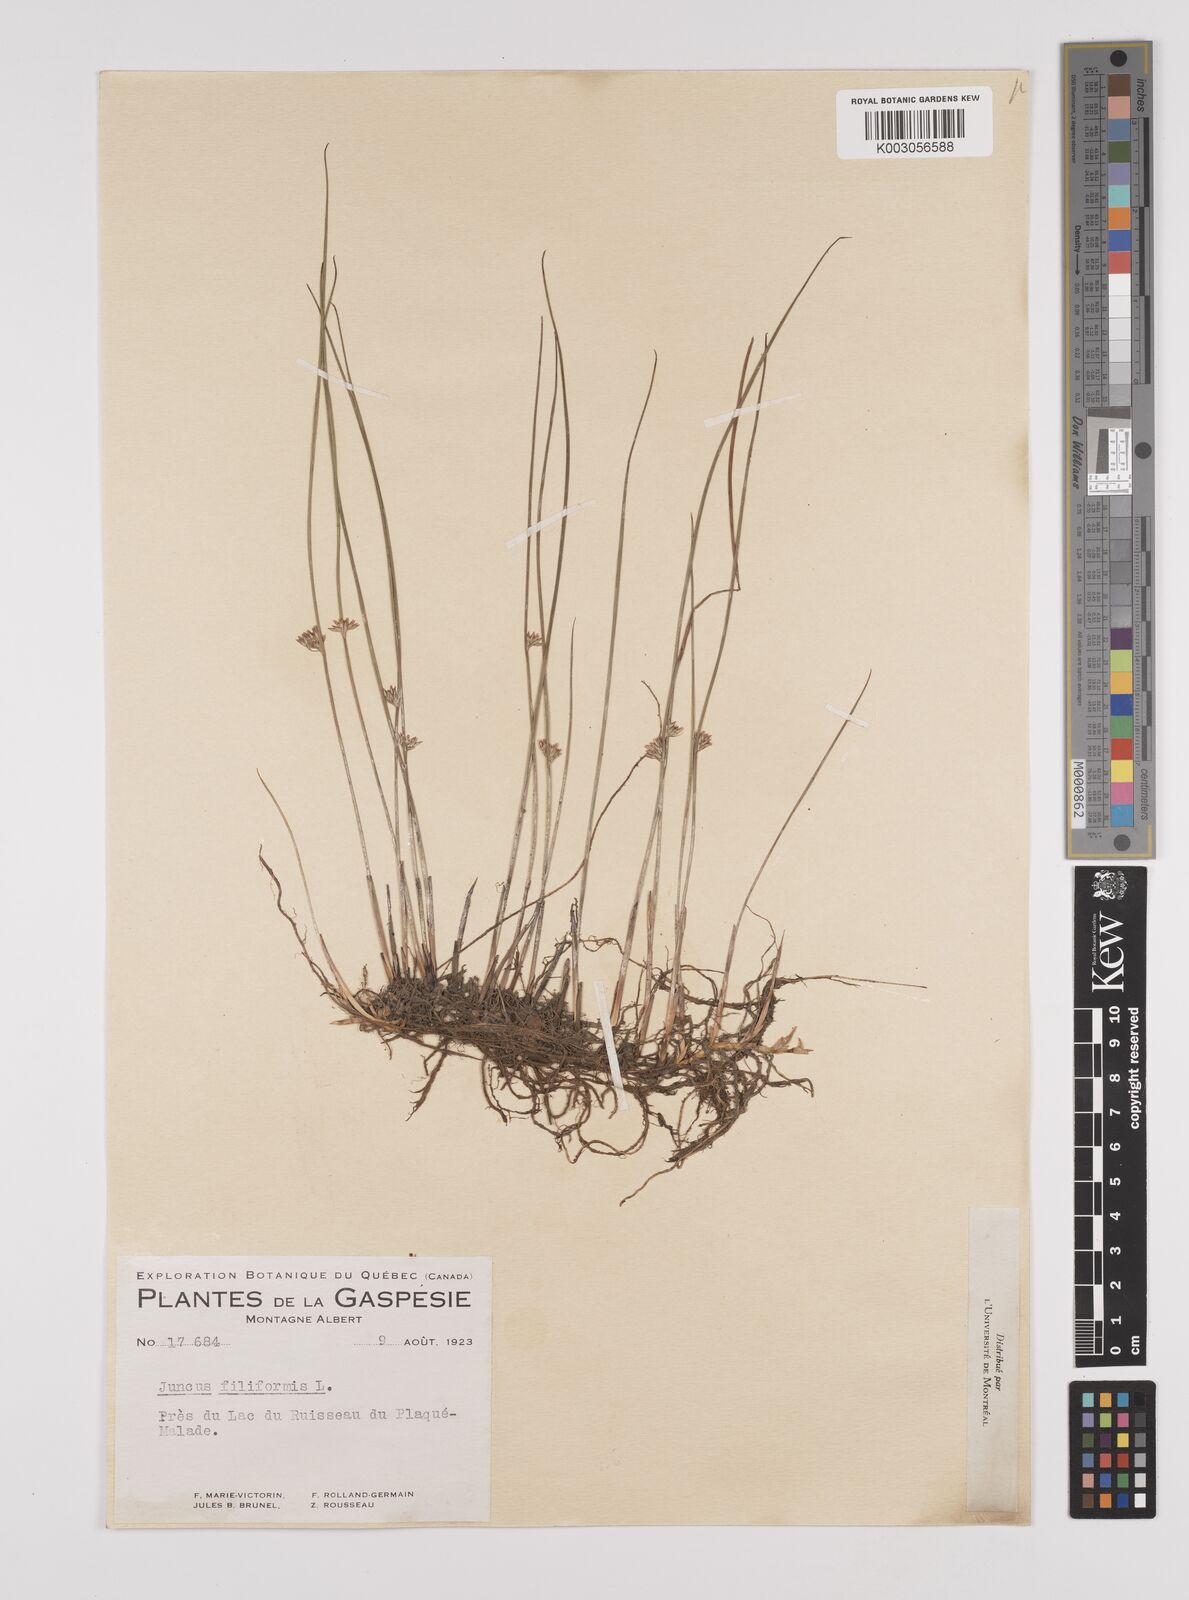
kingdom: Plantae
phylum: Tracheophyta
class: Liliopsida
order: Poales
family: Juncaceae
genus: Juncus
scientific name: Juncus filiformis
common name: Thread rush
